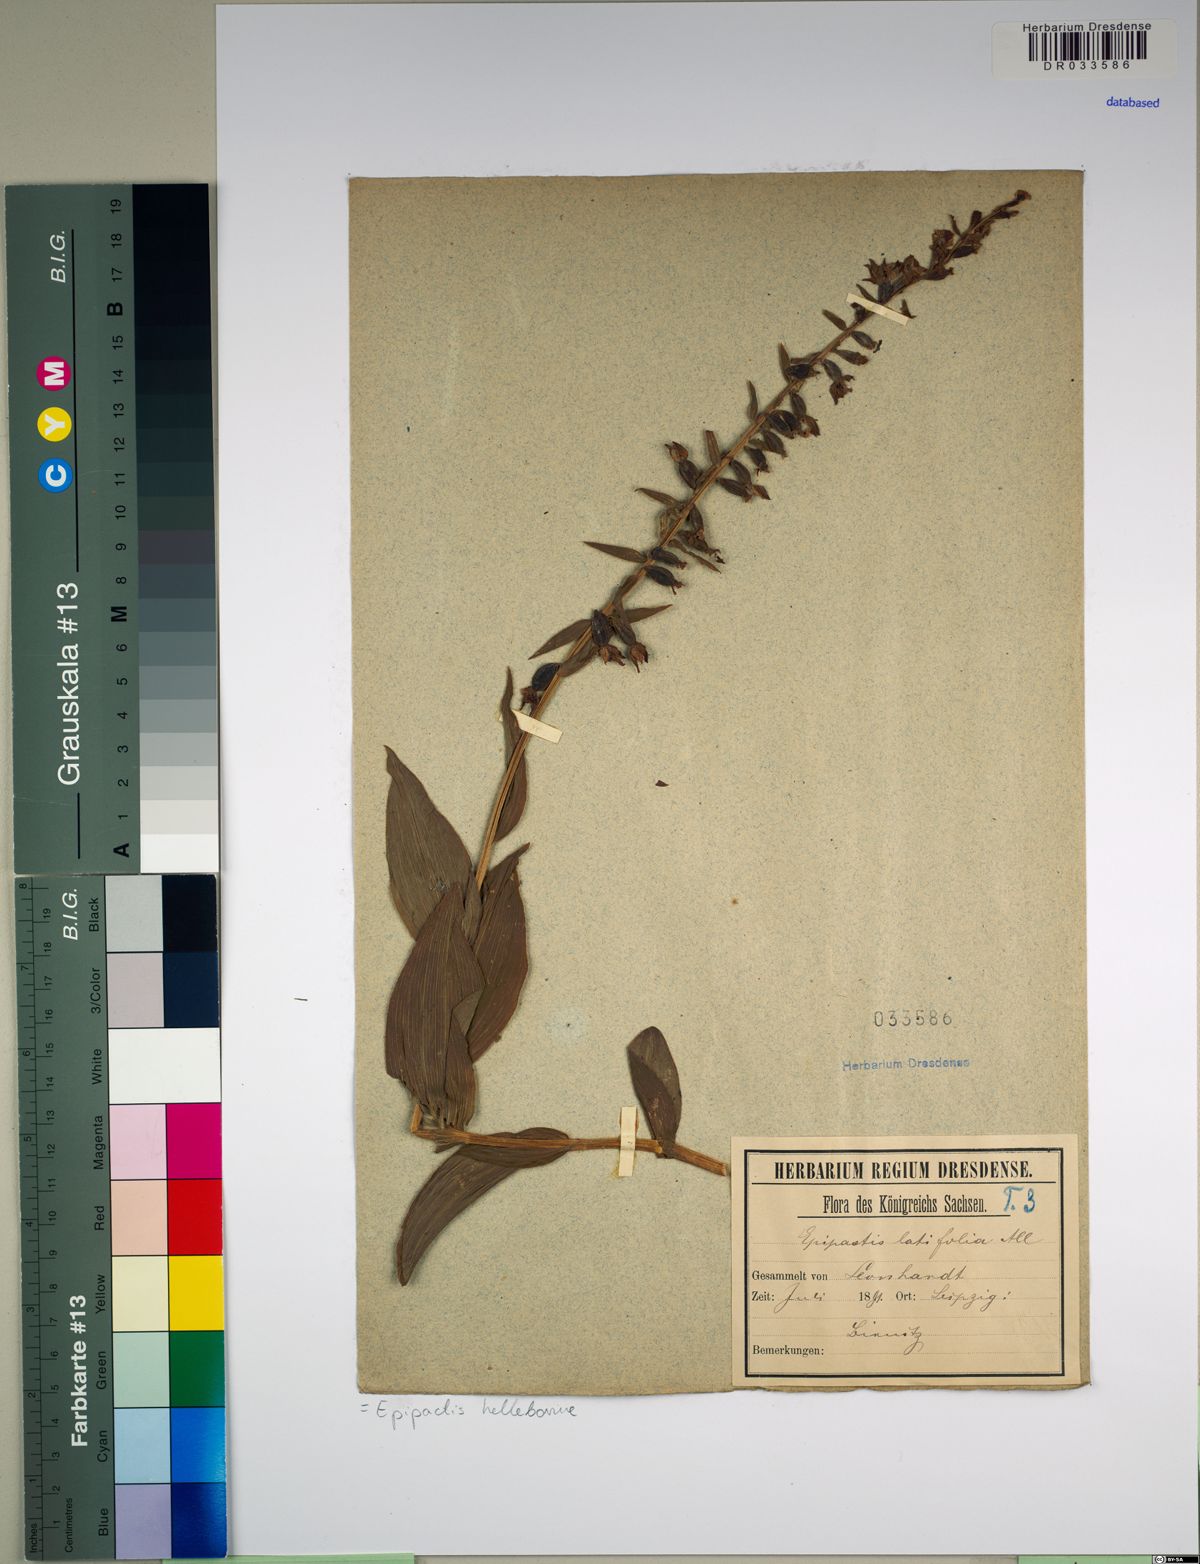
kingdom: Plantae
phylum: Tracheophyta
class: Liliopsida
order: Asparagales
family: Orchidaceae
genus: Epipactis
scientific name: Epipactis helleborine
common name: Broad-leaved helleborine
